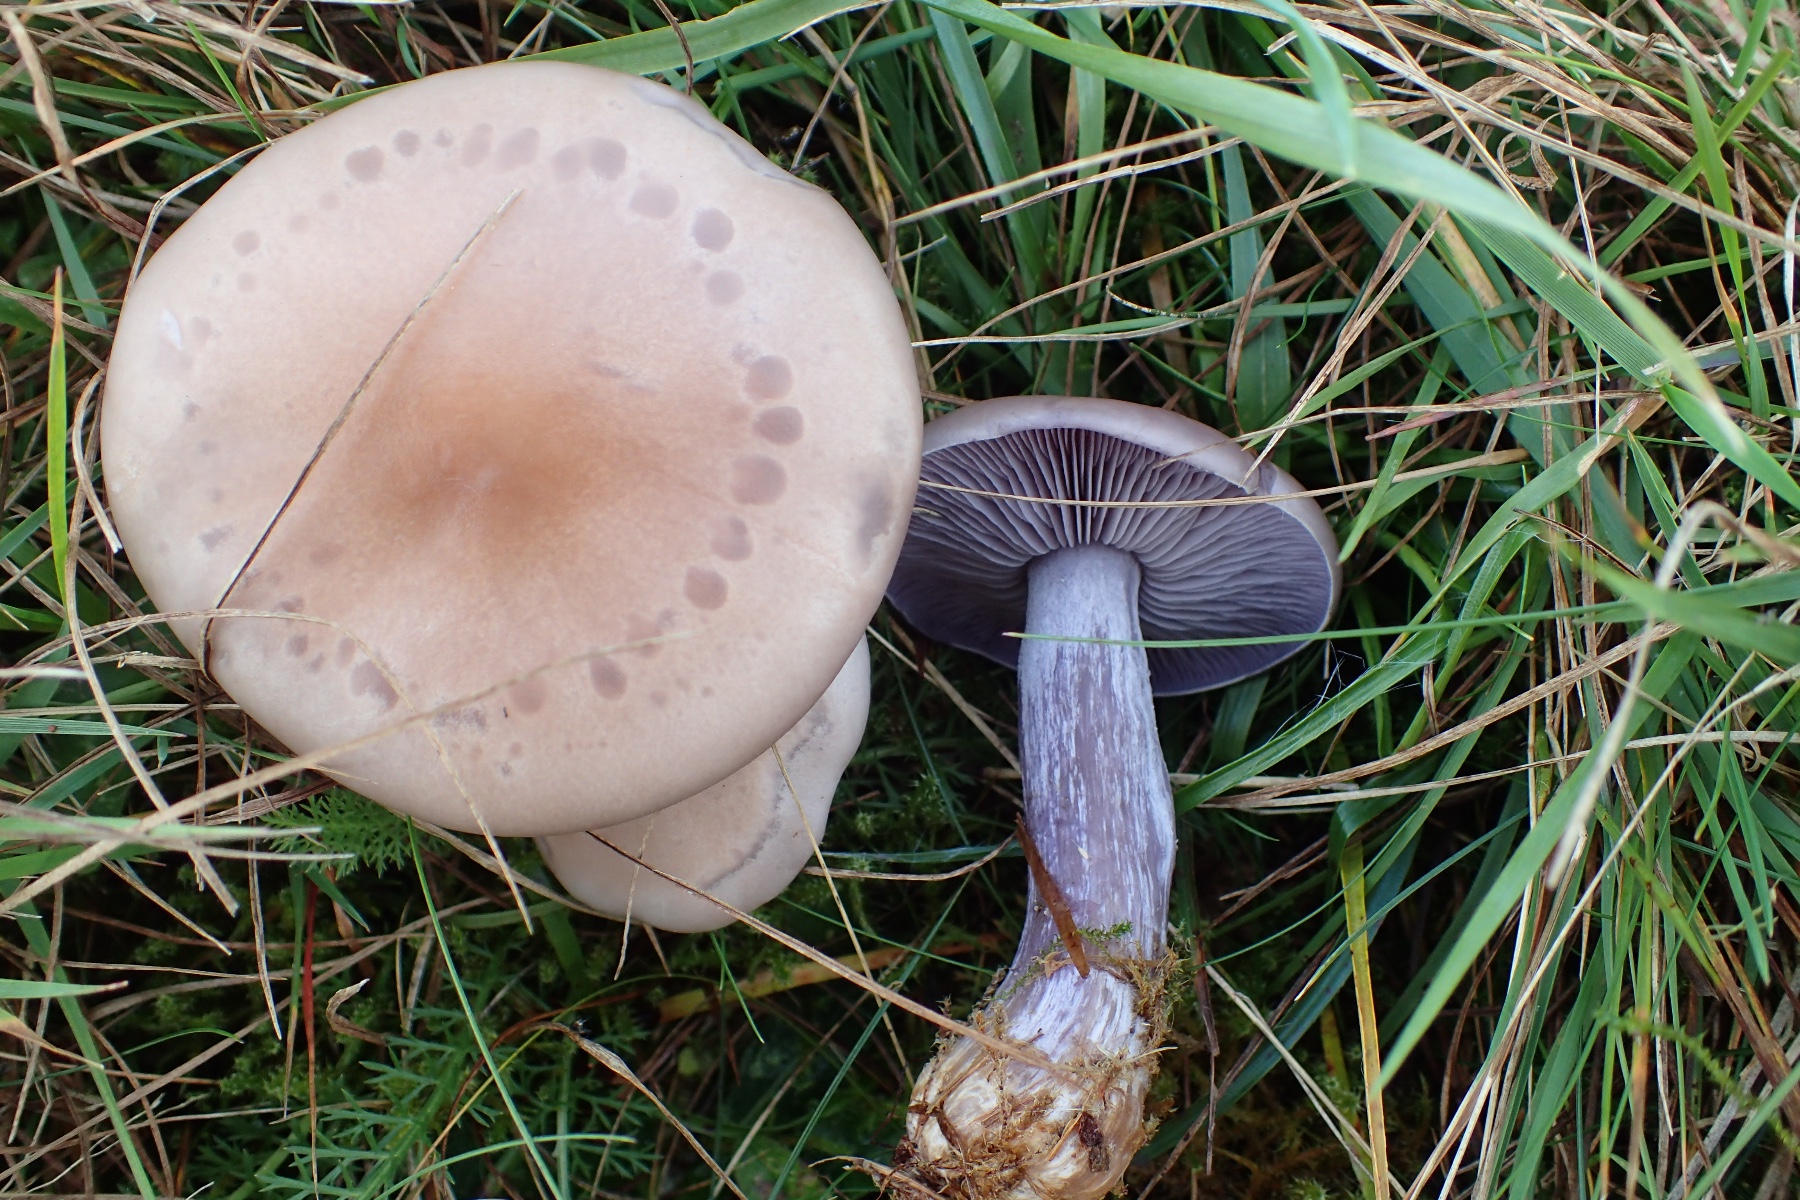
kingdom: Fungi
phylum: Basidiomycota
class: Agaricomycetes
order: Agaricales
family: Tricholomataceae
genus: Lepista
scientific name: Lepista nuda
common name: violet hekseringshat
